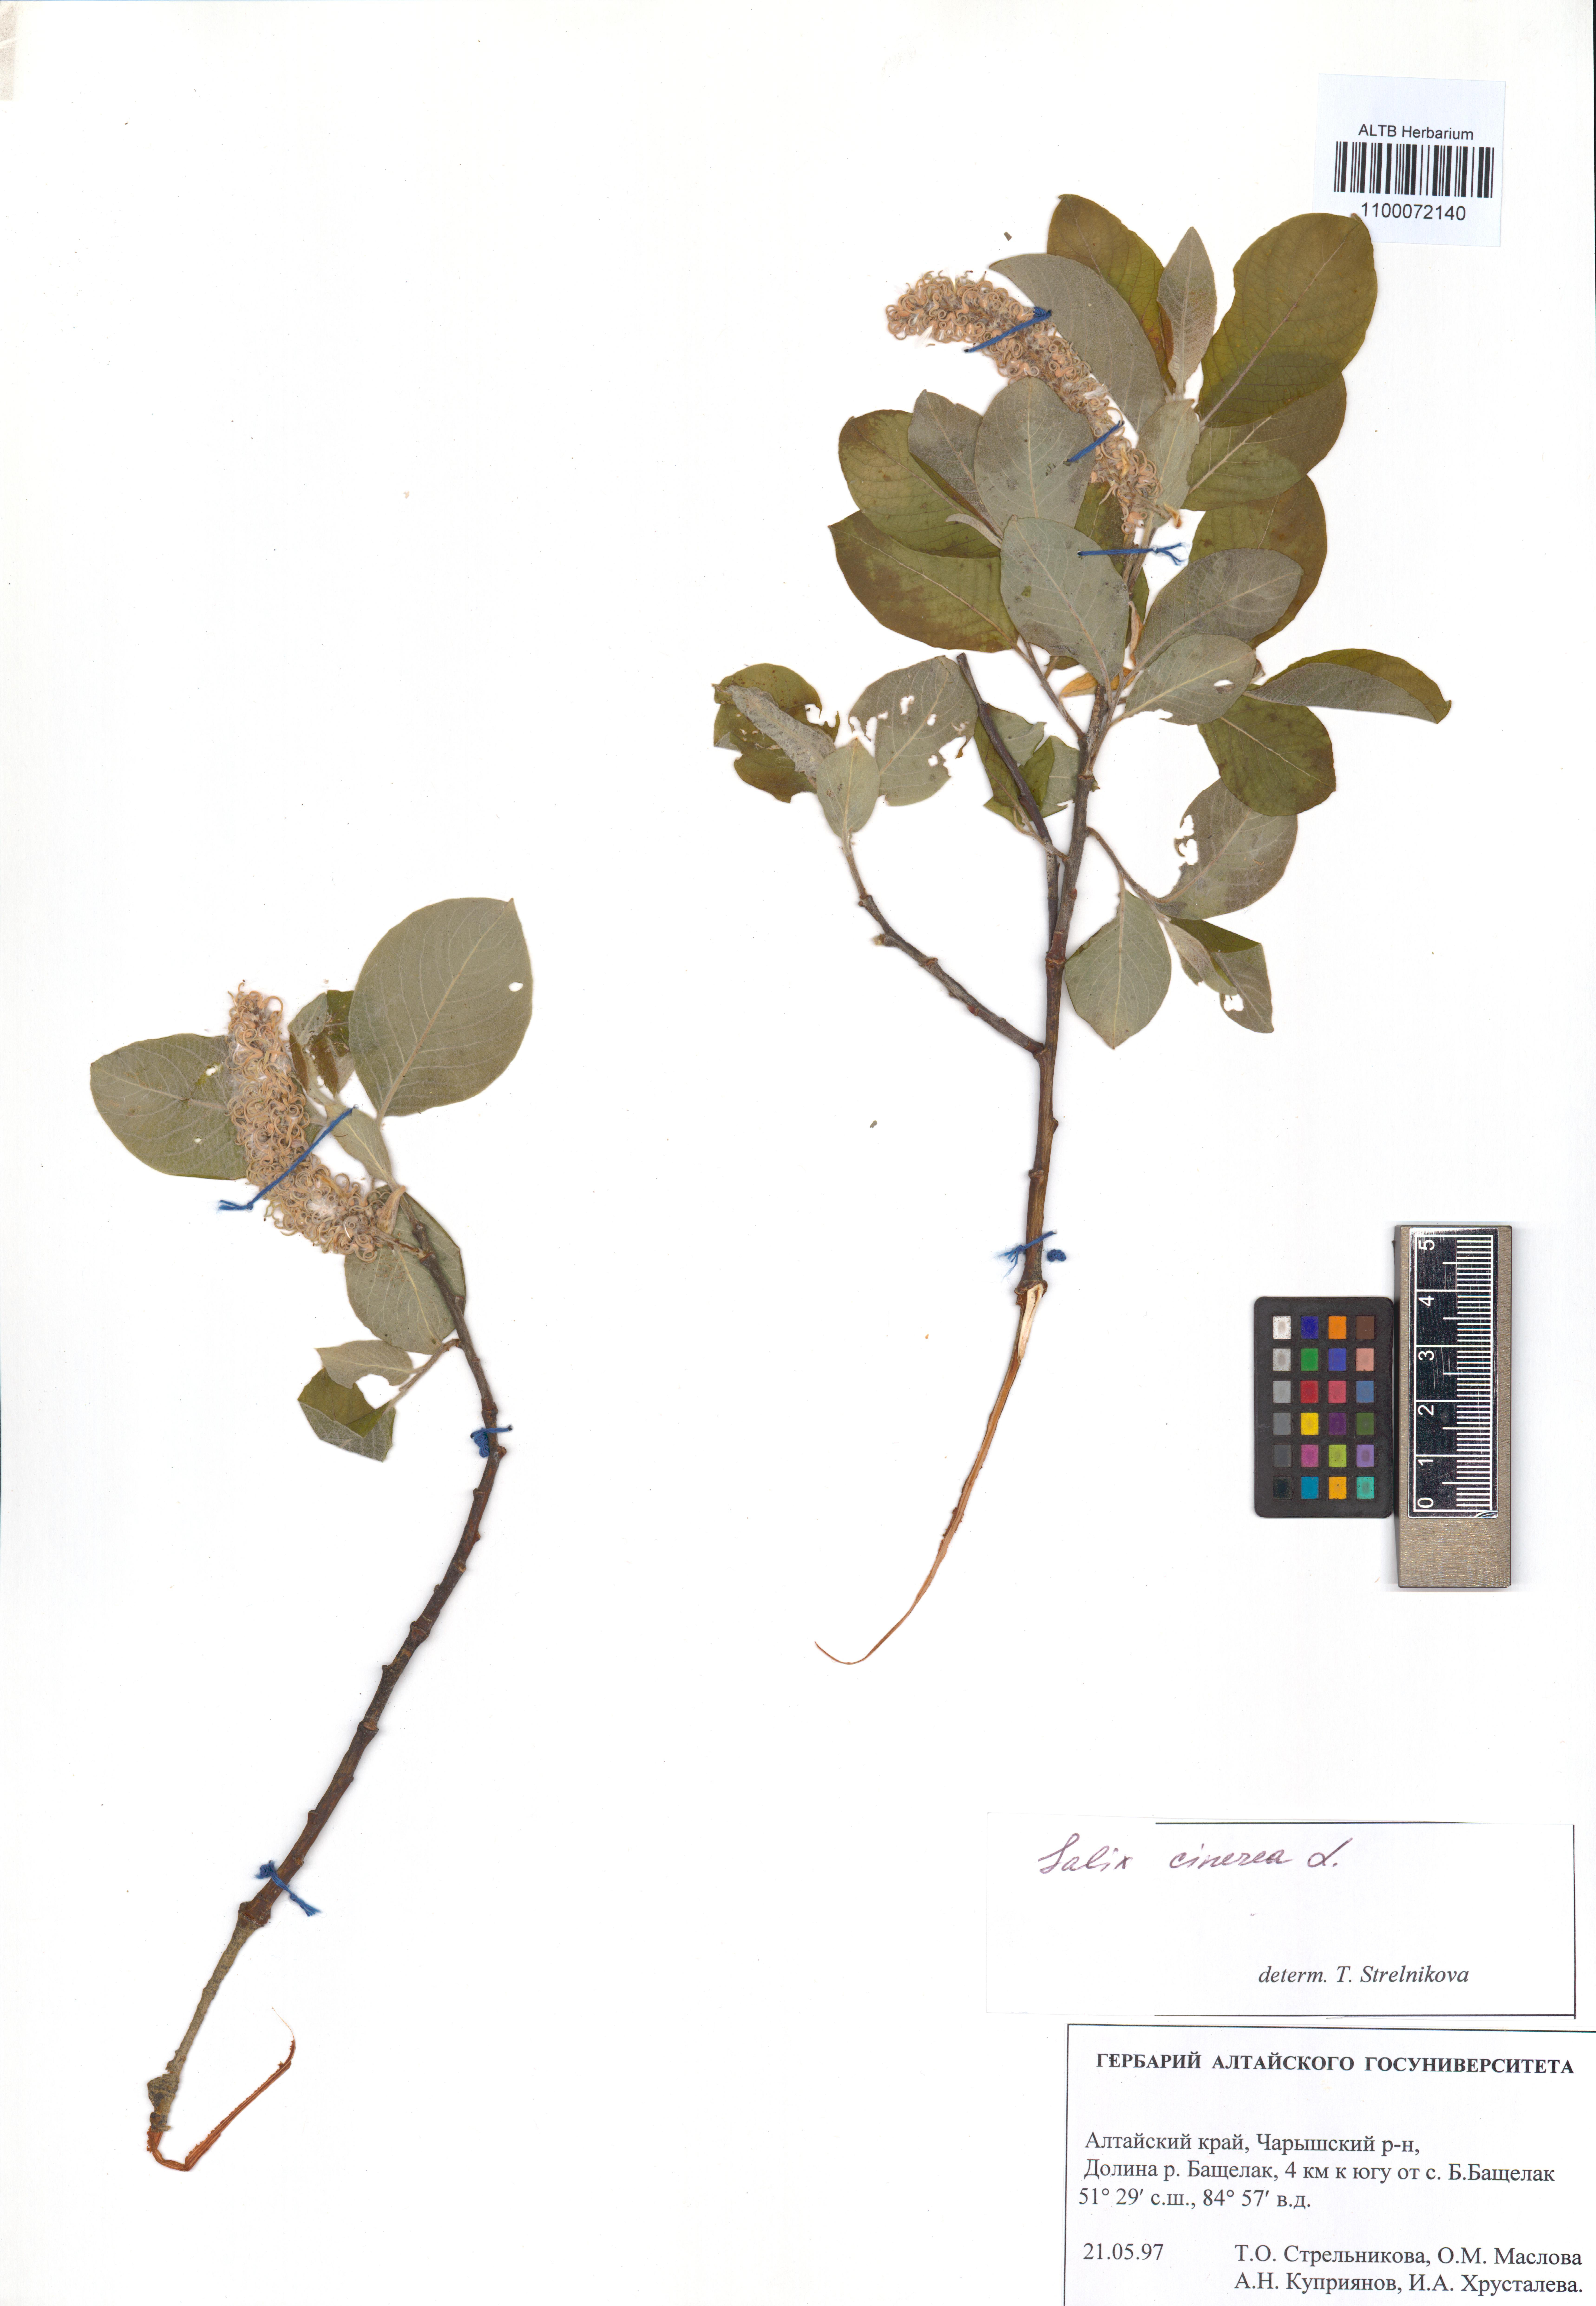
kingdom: Plantae
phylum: Tracheophyta
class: Magnoliopsida
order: Malpighiales
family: Salicaceae
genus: Salix
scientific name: Salix cinerea
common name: Common sallow
